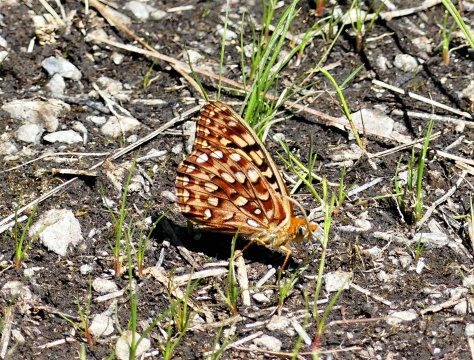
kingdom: Animalia
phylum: Arthropoda
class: Insecta
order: Lepidoptera
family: Nymphalidae
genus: Speyeria
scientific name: Speyeria zerene
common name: Zerene Fritillary
